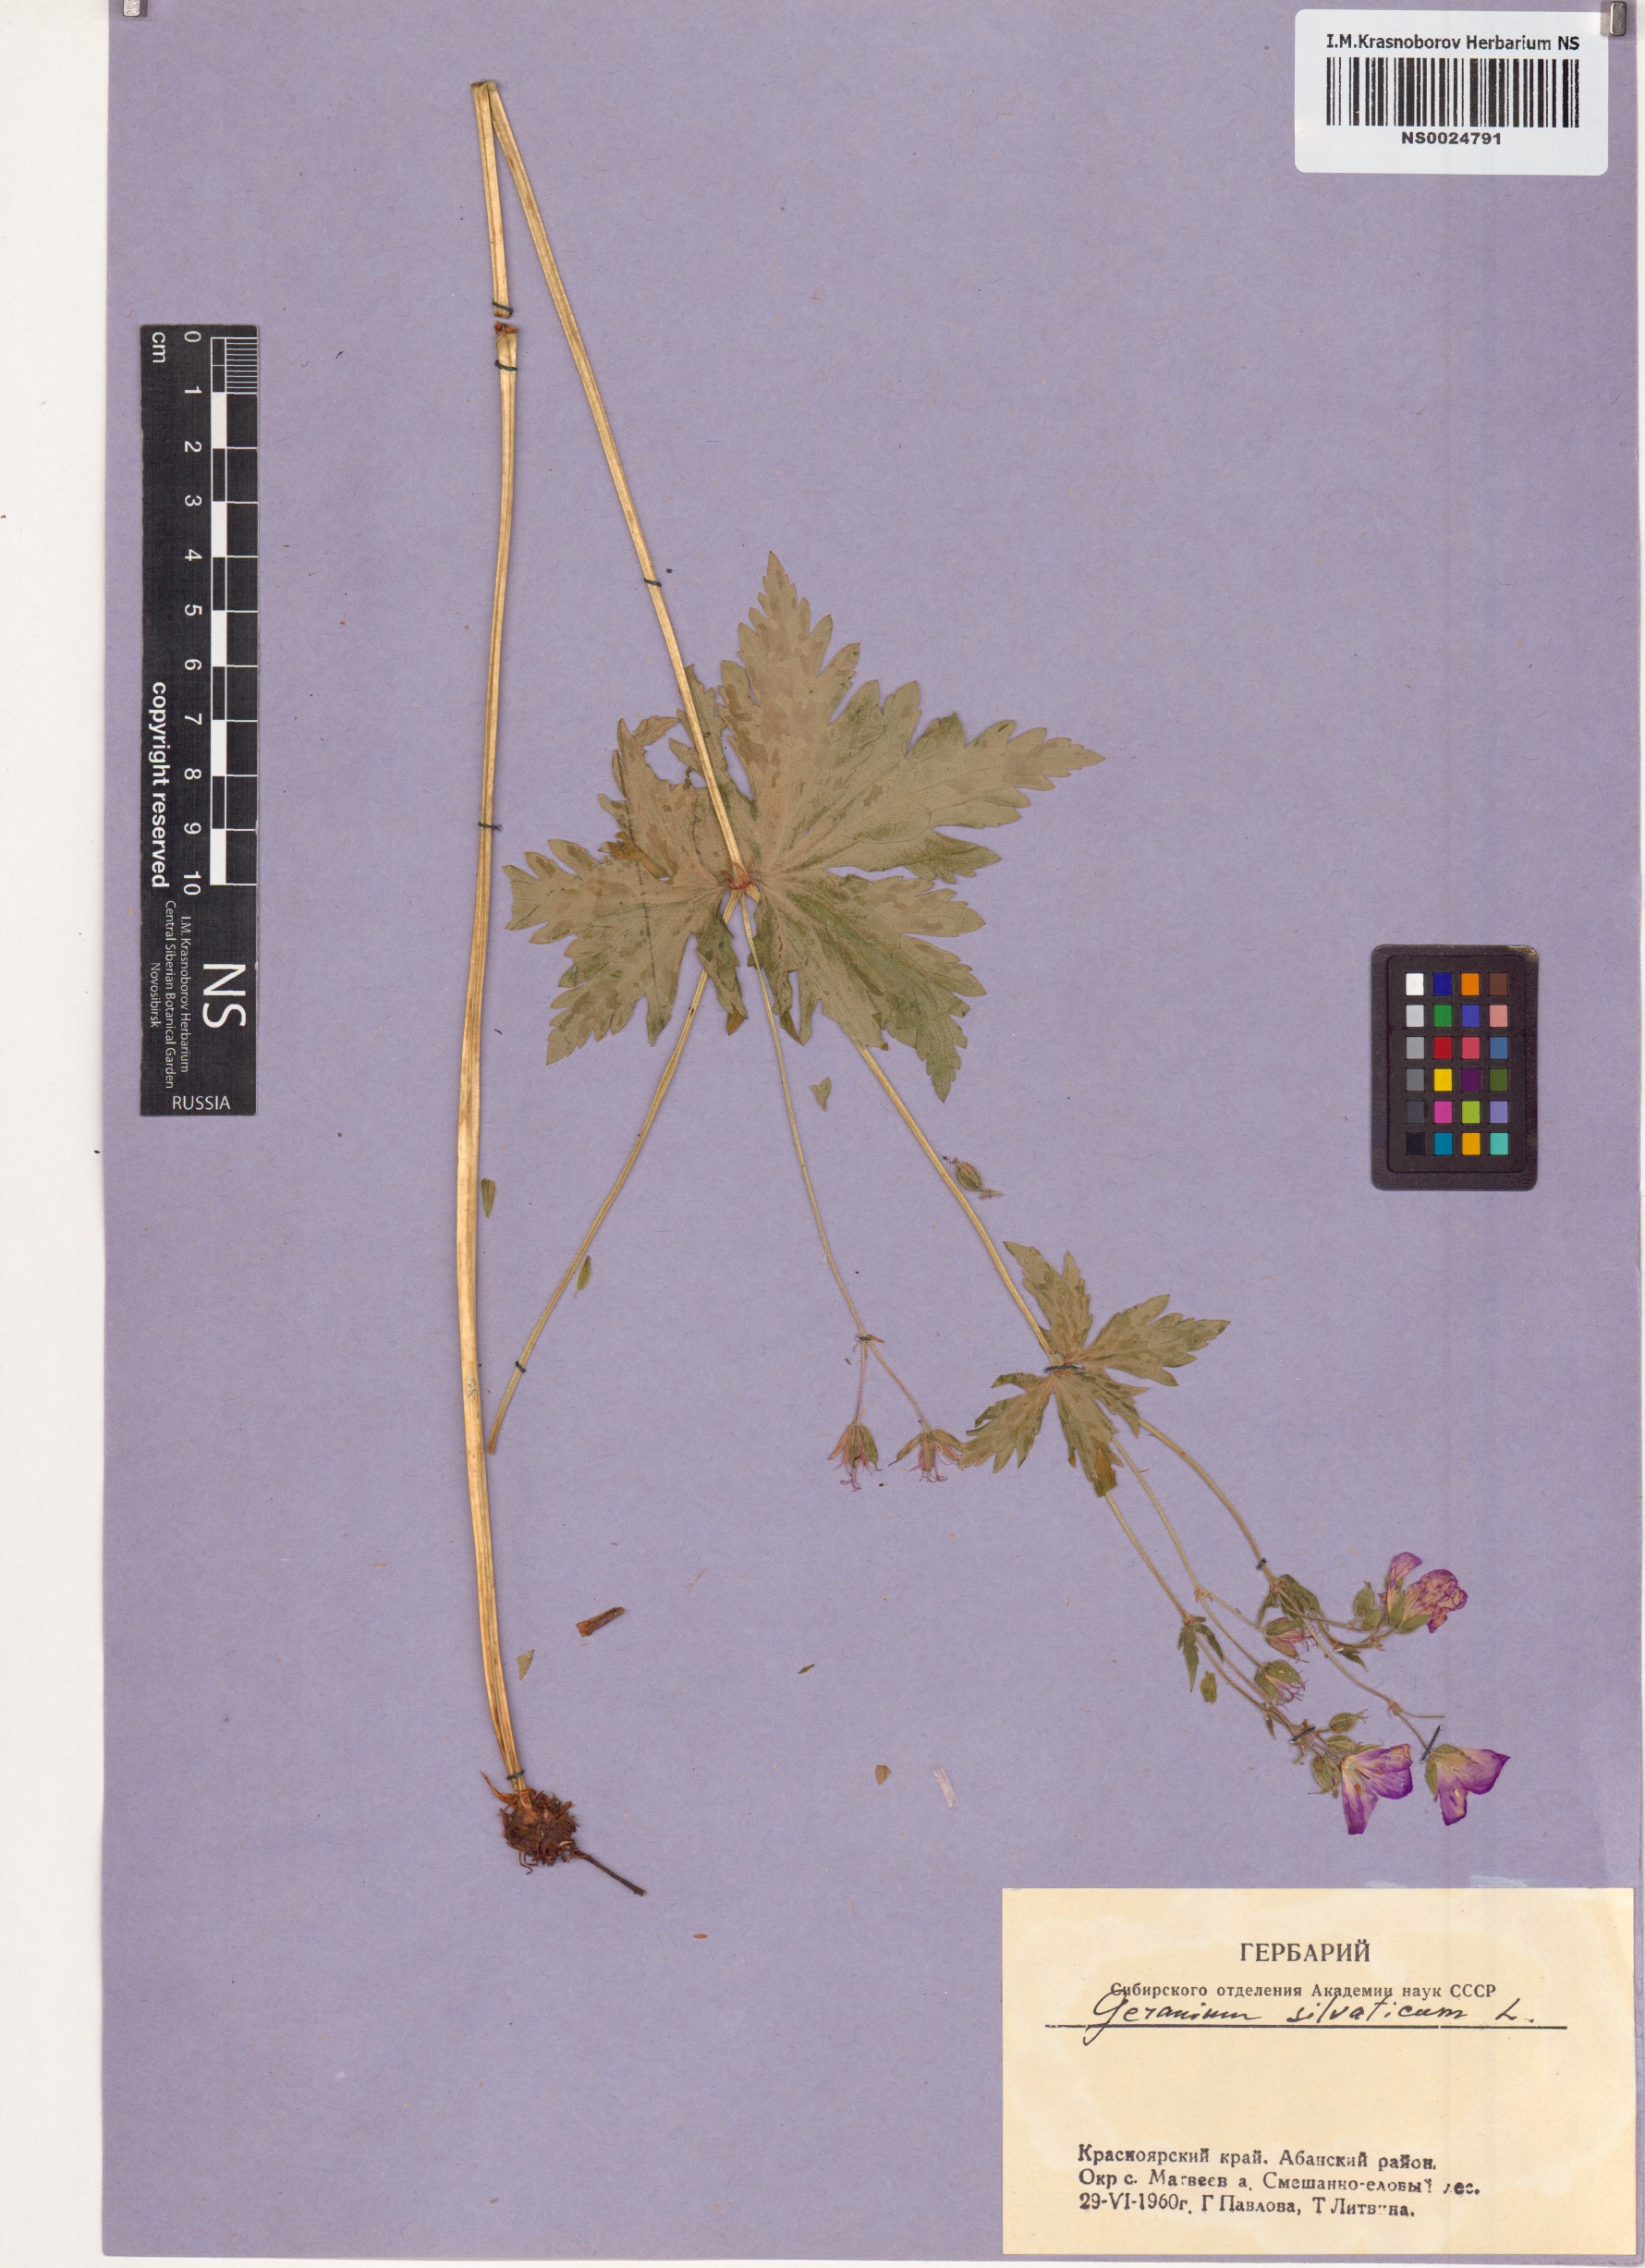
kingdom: Plantae
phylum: Tracheophyta
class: Magnoliopsida
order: Geraniales
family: Geraniaceae
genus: Geranium
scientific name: Geranium sylvaticum
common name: Wood crane's-bill
